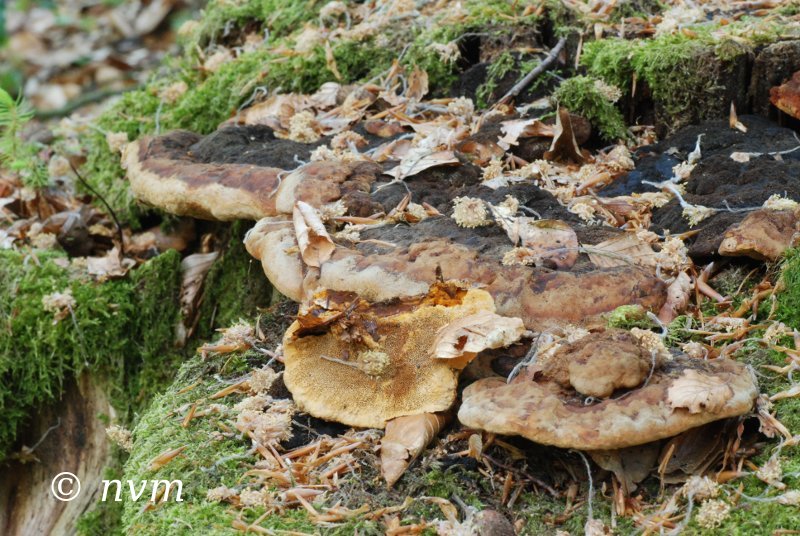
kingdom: Fungi
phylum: Basidiomycota
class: Agaricomycetes
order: Gloeophyllales
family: Gloeophyllaceae
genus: Gloeophyllum
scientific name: Gloeophyllum odoratum
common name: duftende korkhat
